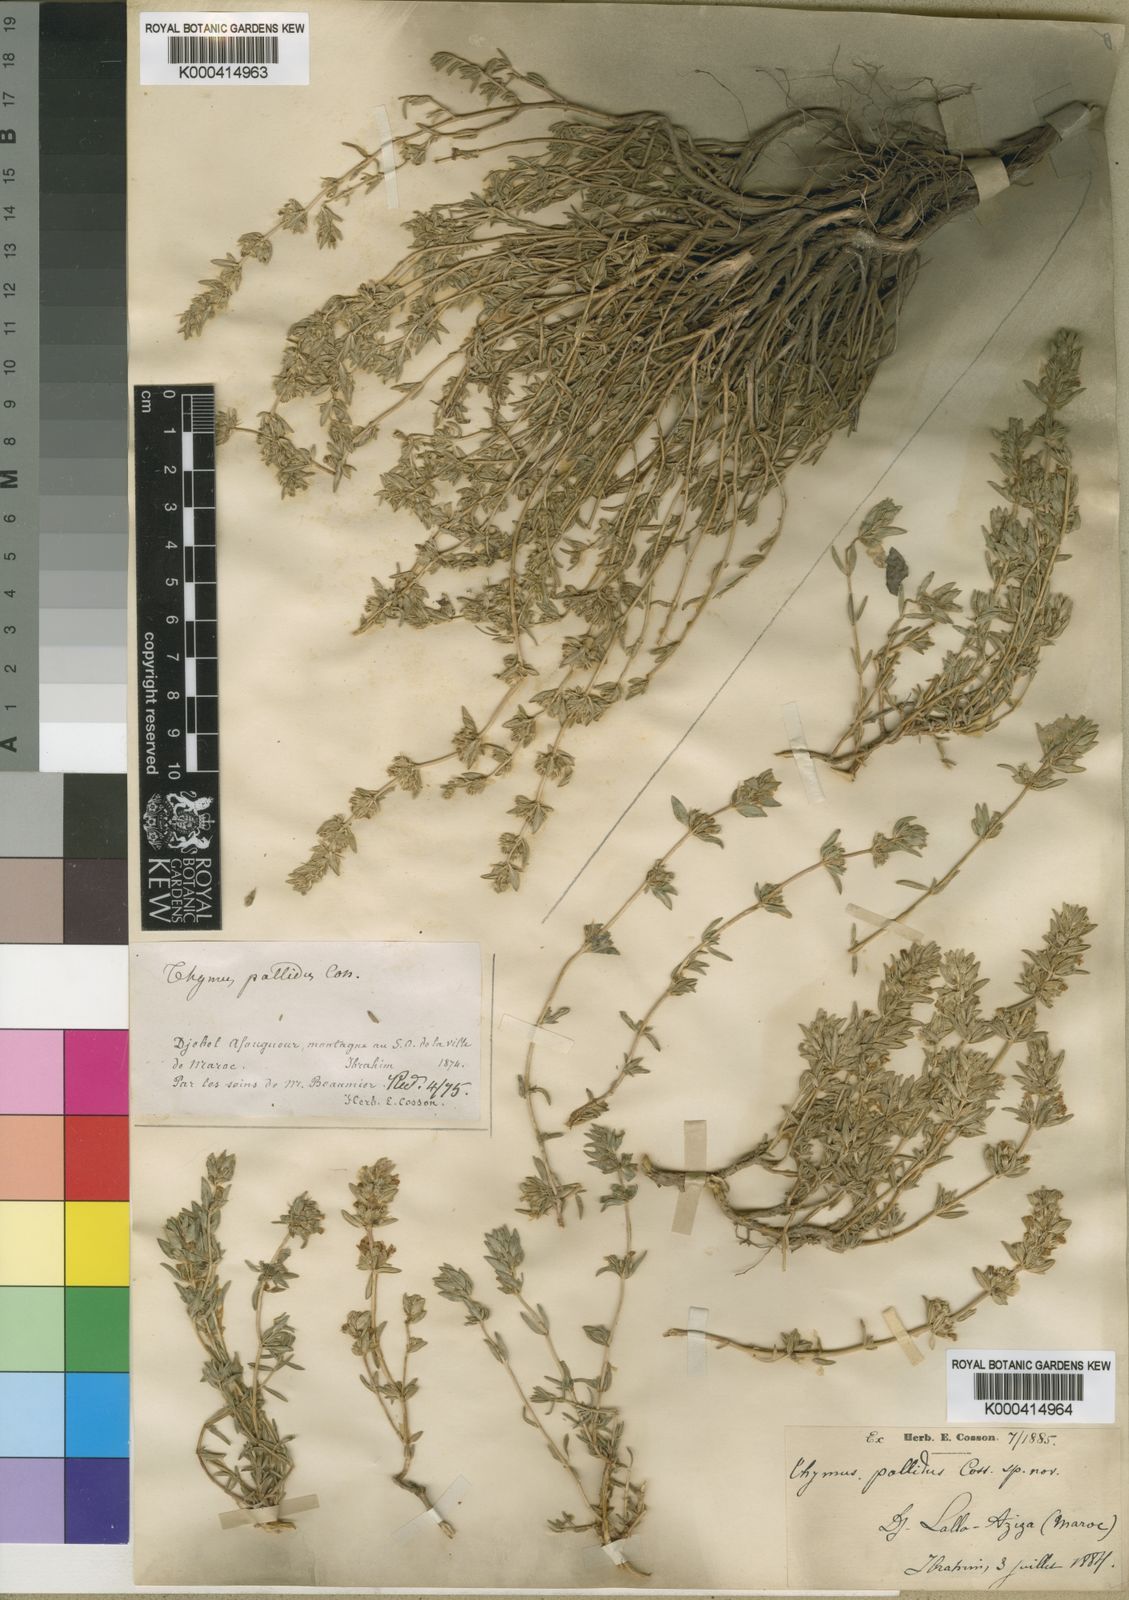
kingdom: Plantae
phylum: Tracheophyta
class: Magnoliopsida
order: Lamiales
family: Lamiaceae
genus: Thymus
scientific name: Thymus
